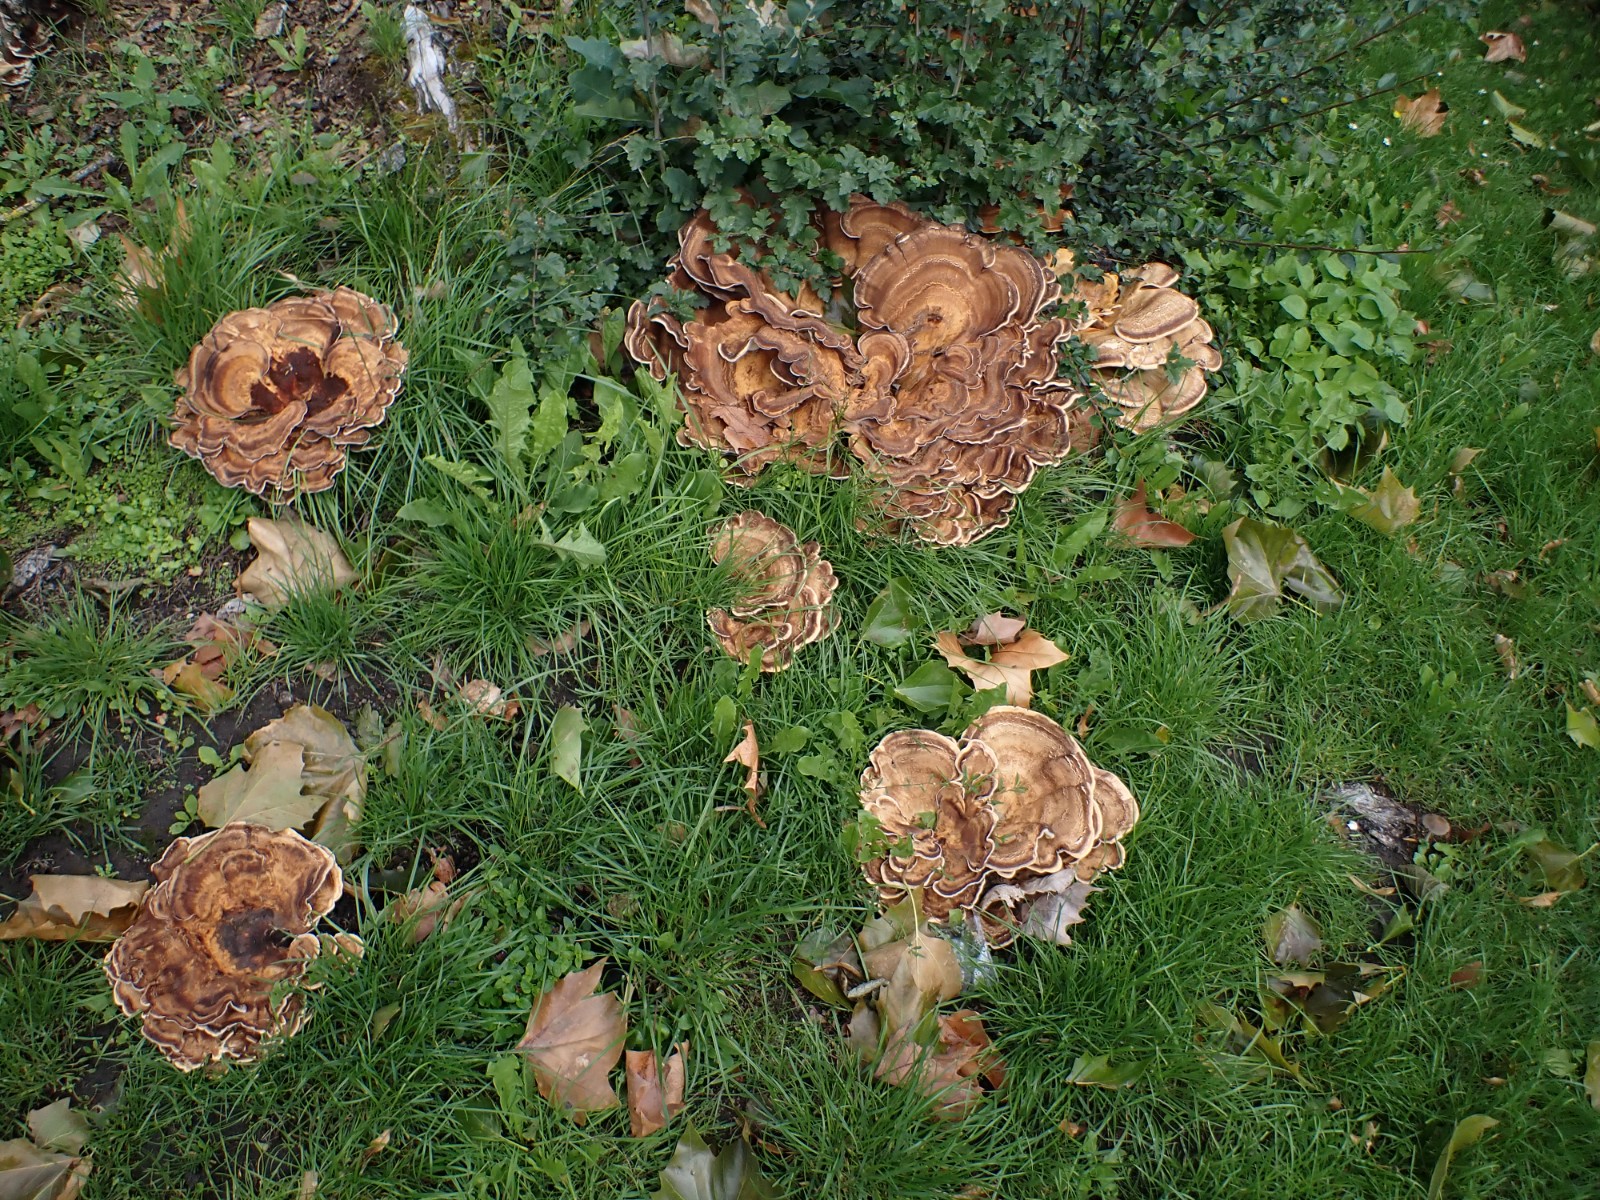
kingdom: Fungi
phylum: Basidiomycota
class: Agaricomycetes
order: Polyporales
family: Meripilaceae
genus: Meripilus
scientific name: Meripilus giganteus
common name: kæmpeporesvamp
